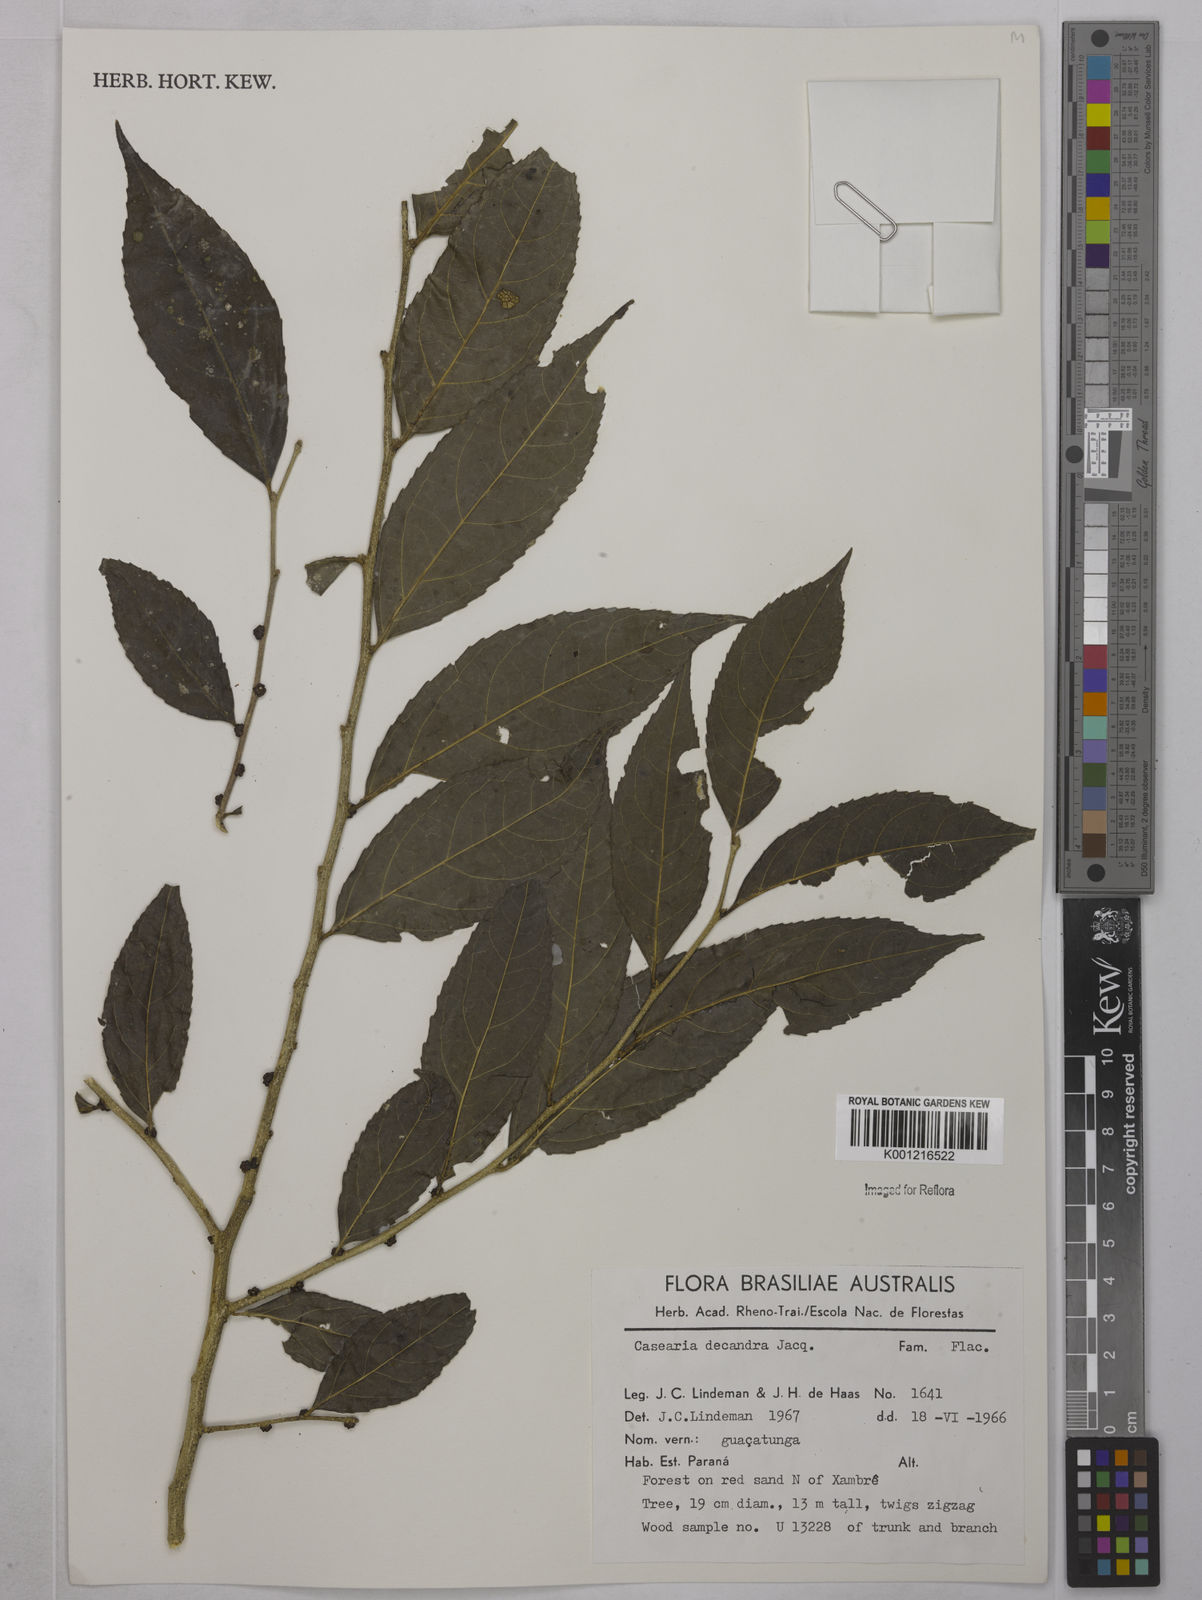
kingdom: Plantae
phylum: Tracheophyta
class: Magnoliopsida
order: Malpighiales
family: Salicaceae
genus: Casearia
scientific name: Casearia decandra
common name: Crack open
